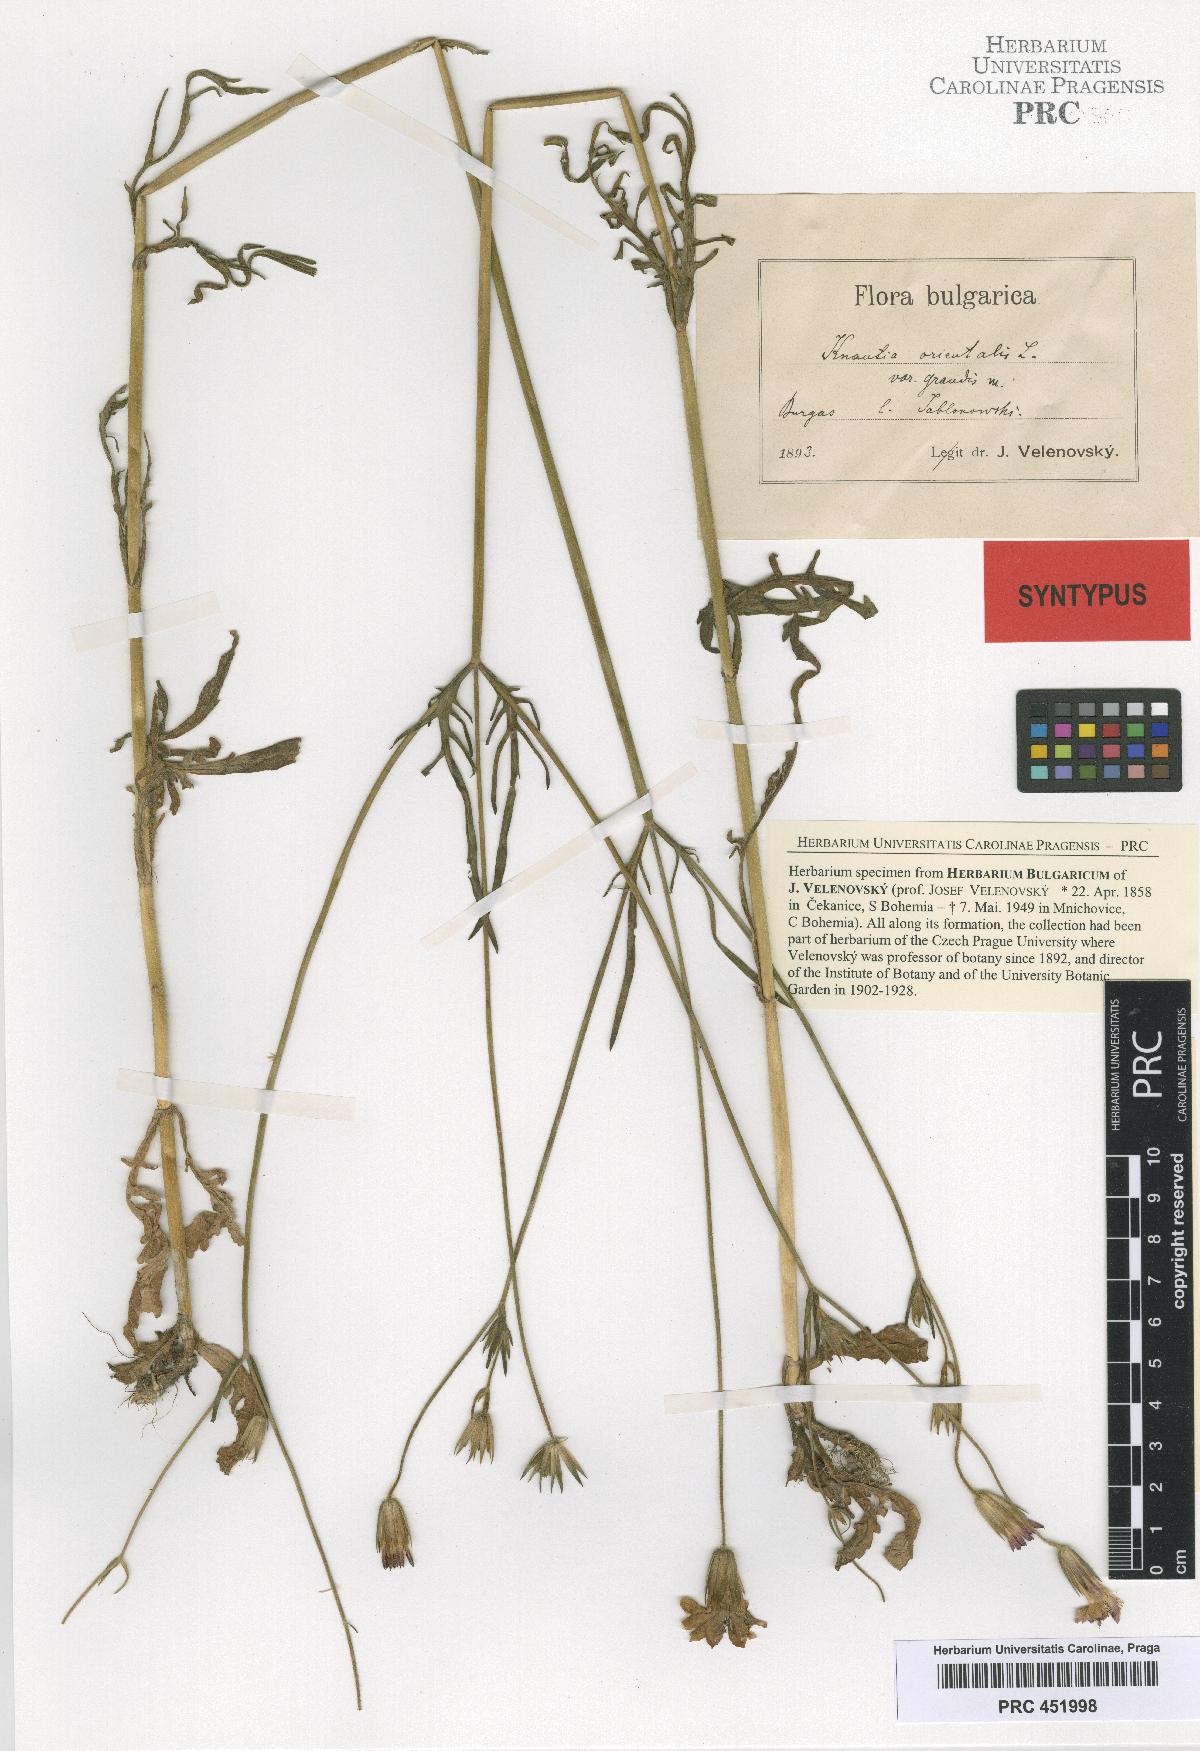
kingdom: Plantae
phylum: Tracheophyta
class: Magnoliopsida
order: Dipsacales
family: Caprifoliaceae
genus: Knautia
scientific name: Knautia orientalis
